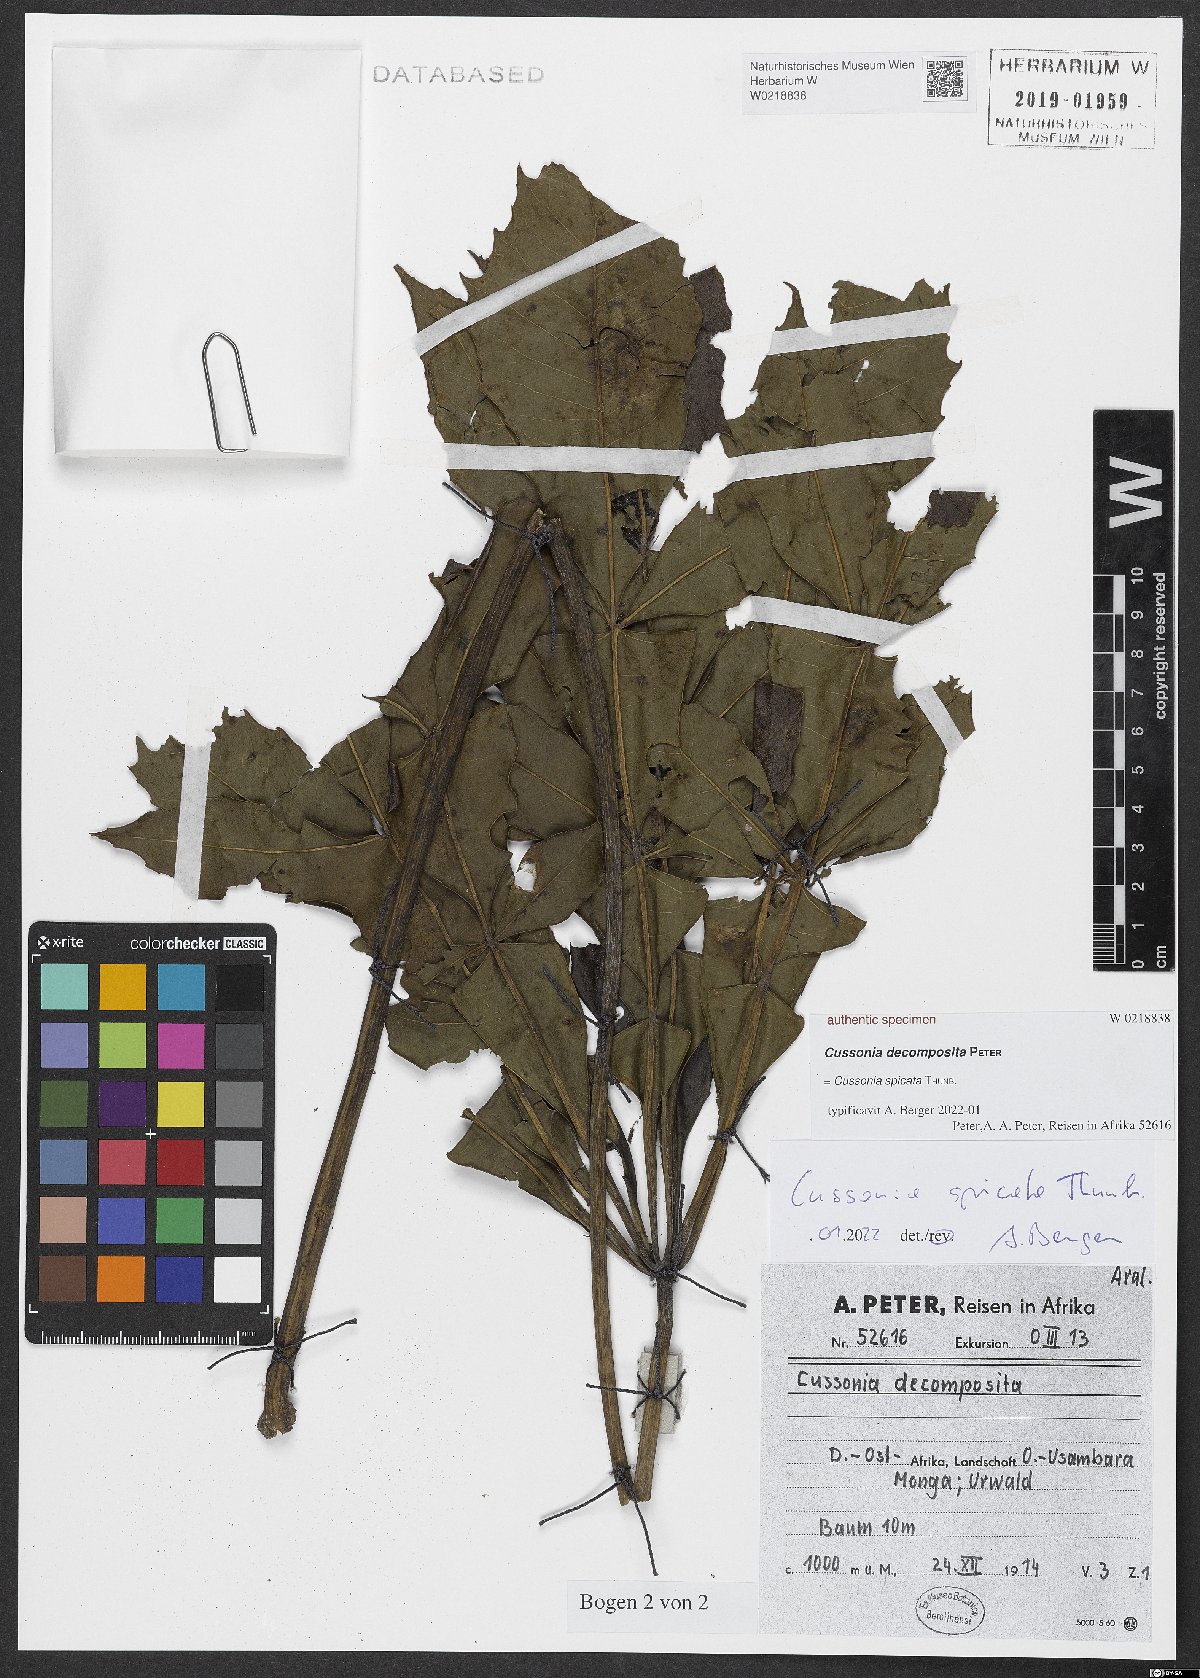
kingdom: Plantae
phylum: Tracheophyta
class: Magnoliopsida
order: Apiales
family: Araliaceae
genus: Cussonia
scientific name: Cussonia
